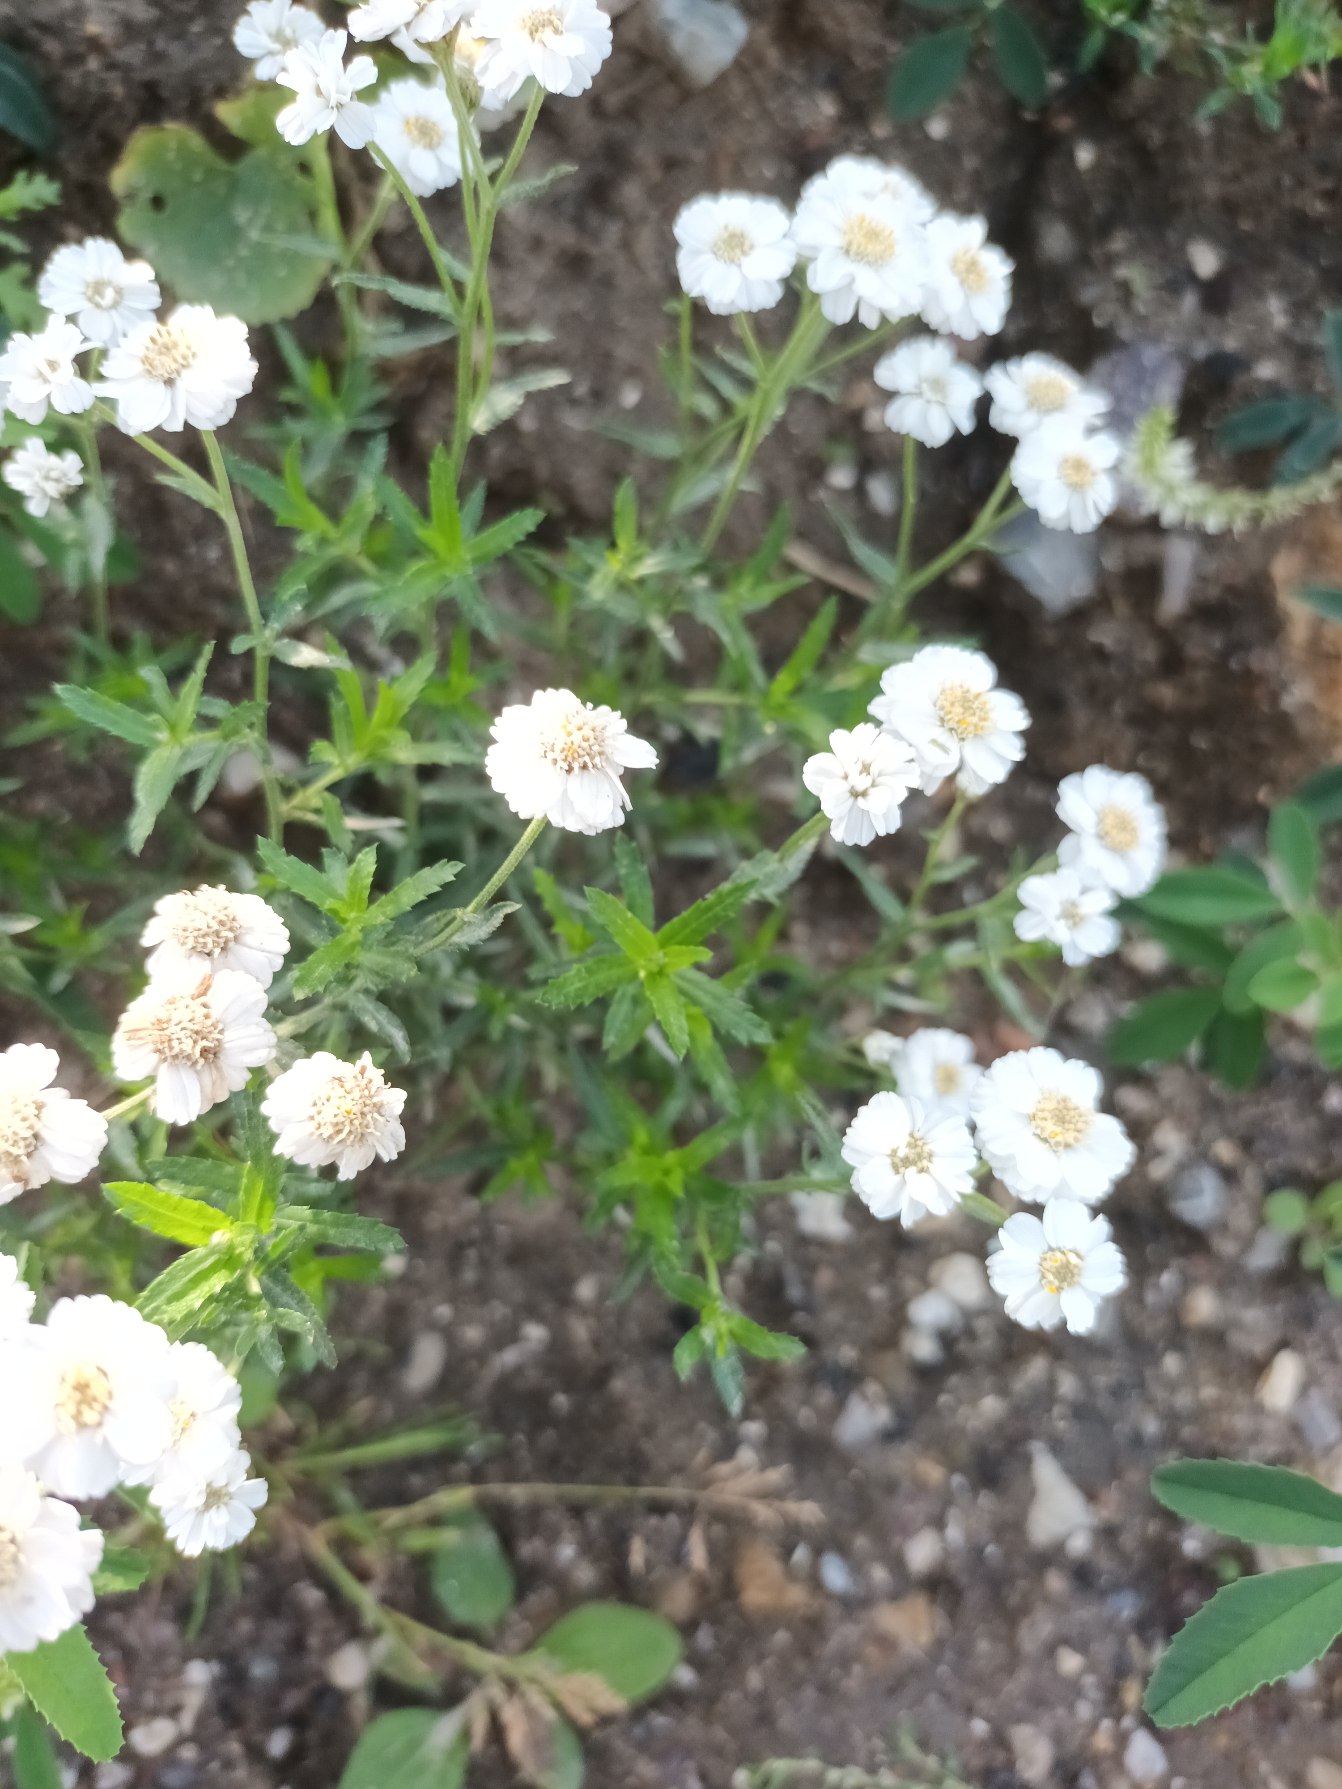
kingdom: Plantae
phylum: Tracheophyta
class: Magnoliopsida
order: Asterales
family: Asteraceae
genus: Achillea
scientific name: Achillea ptarmica
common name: Nyse-røllike
